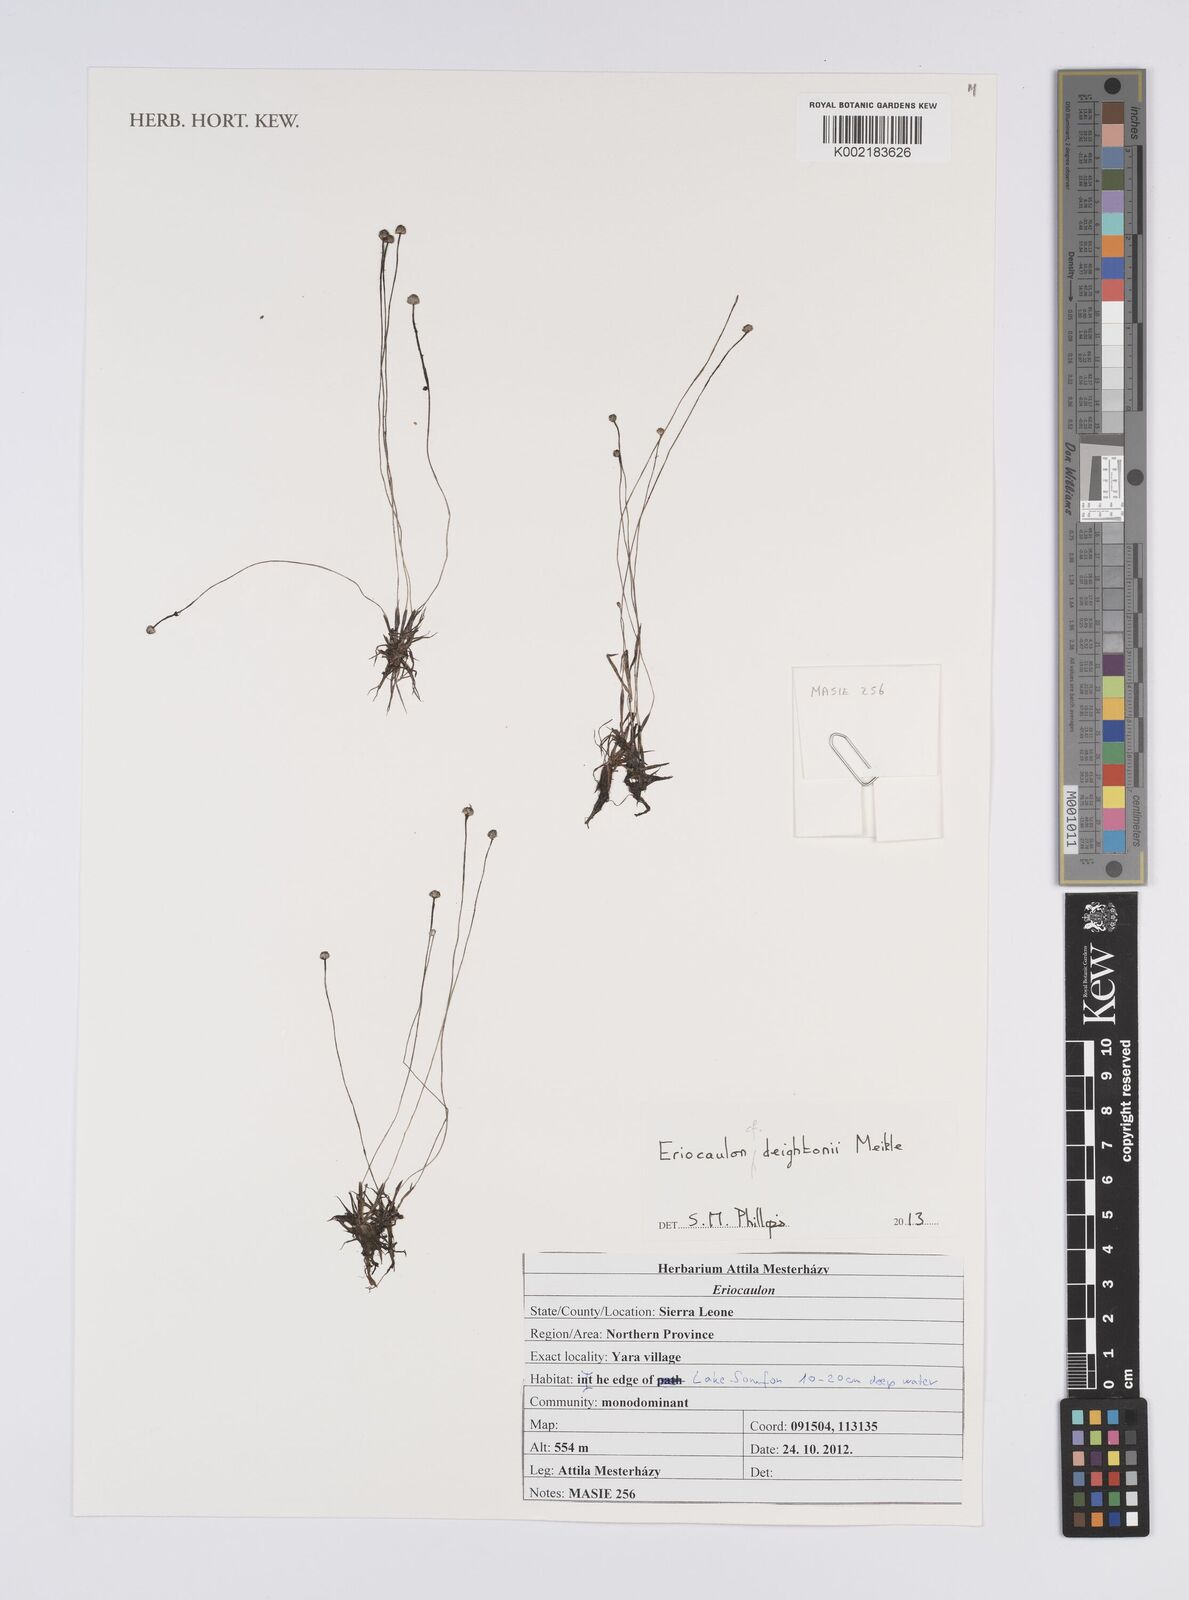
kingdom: Plantae
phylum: Tracheophyta
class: Liliopsida
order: Poales
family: Eriocaulaceae
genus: Eriocaulon
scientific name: Eriocaulon
